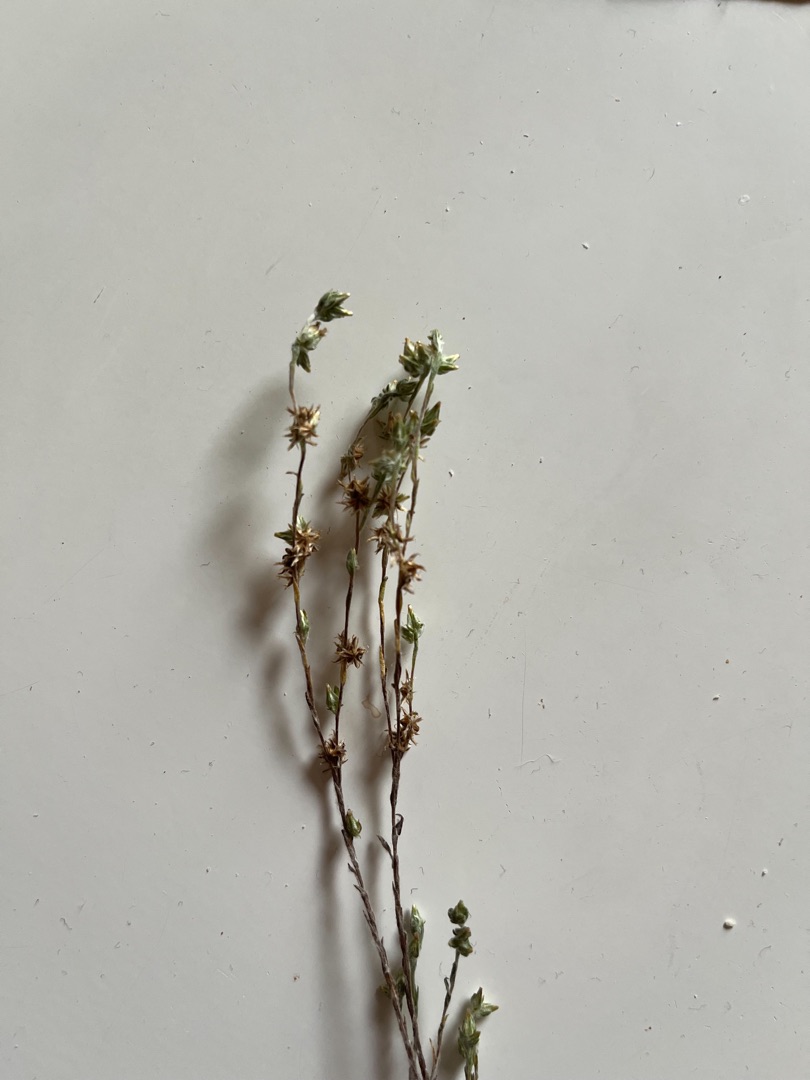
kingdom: Plantae
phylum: Tracheophyta
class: Magnoliopsida
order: Asterales
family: Asteraceae
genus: Logfia
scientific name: Logfia minima
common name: Liden museurt
